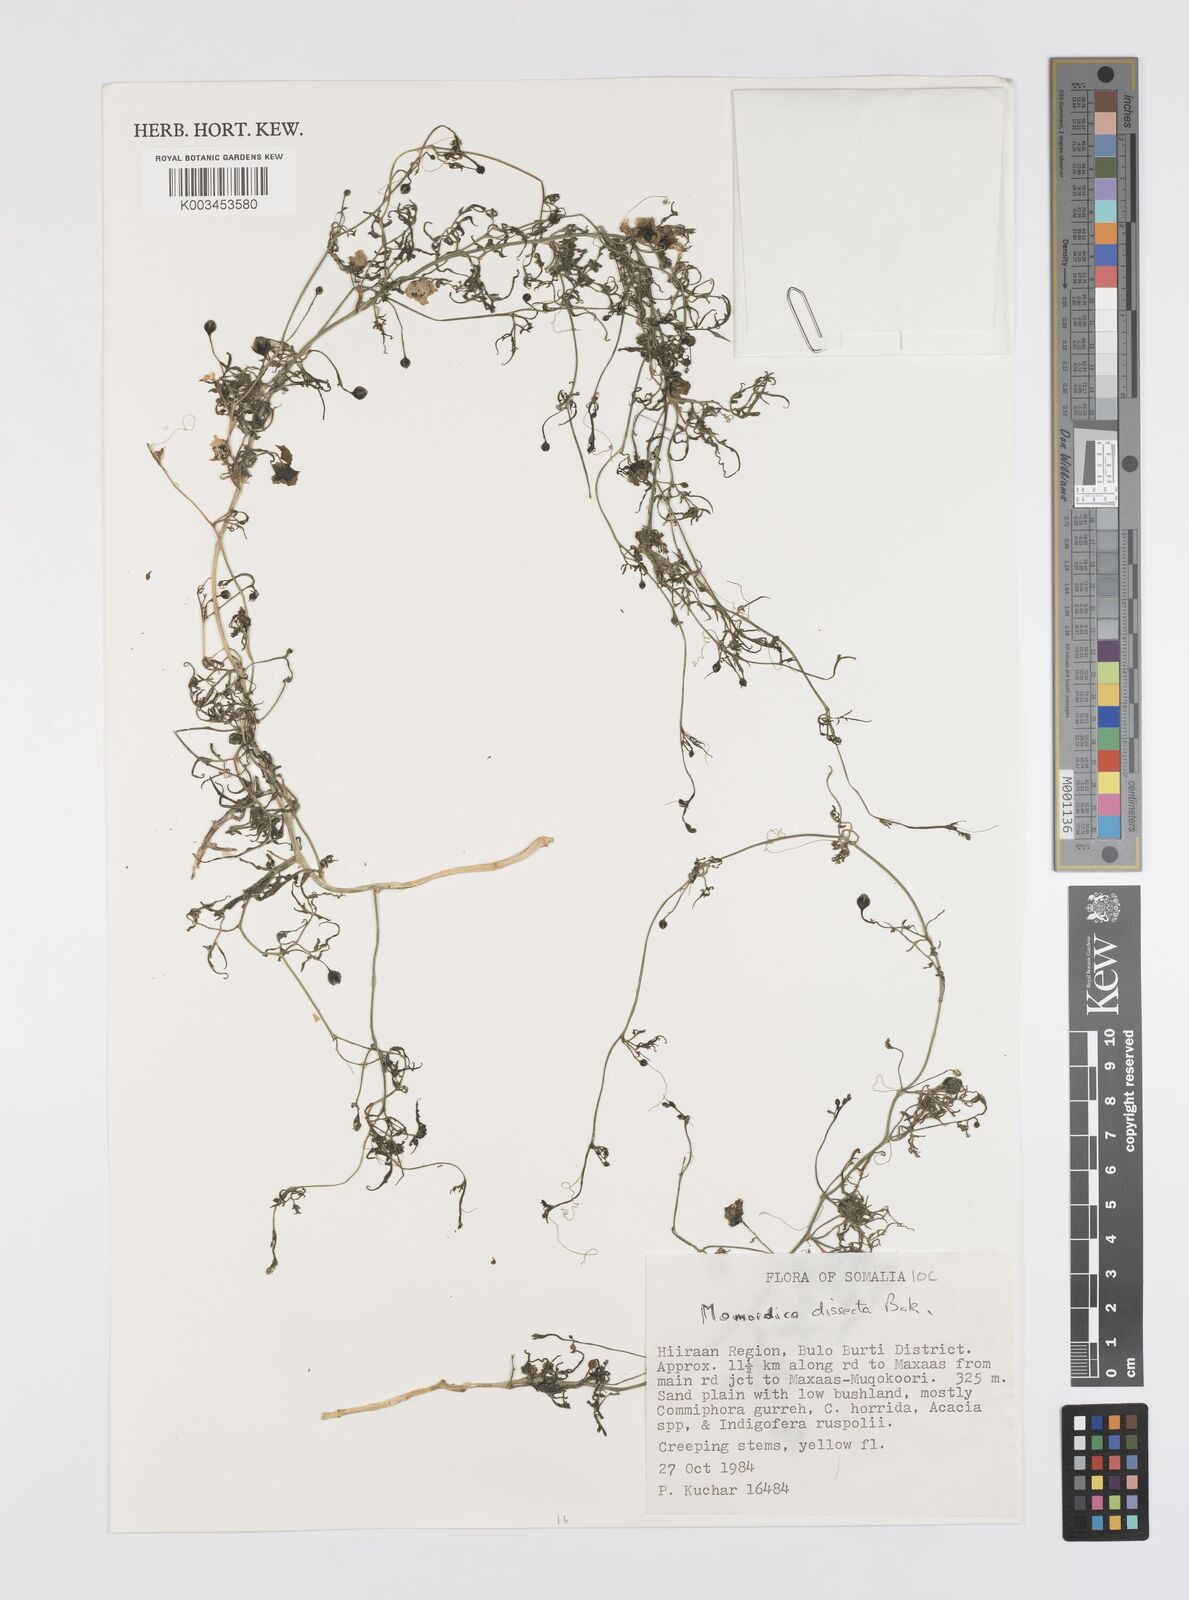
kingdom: Plantae
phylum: Tracheophyta
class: Magnoliopsida
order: Cucurbitales
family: Cucurbitaceae
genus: Momordica
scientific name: Momordica dissecta
